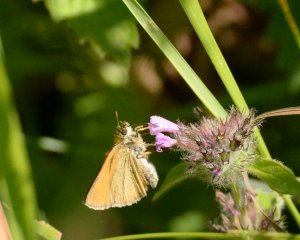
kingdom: Animalia
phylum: Arthropoda
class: Insecta
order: Lepidoptera
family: Hesperiidae
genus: Thymelicus
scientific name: Thymelicus lineola
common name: European Skipper
